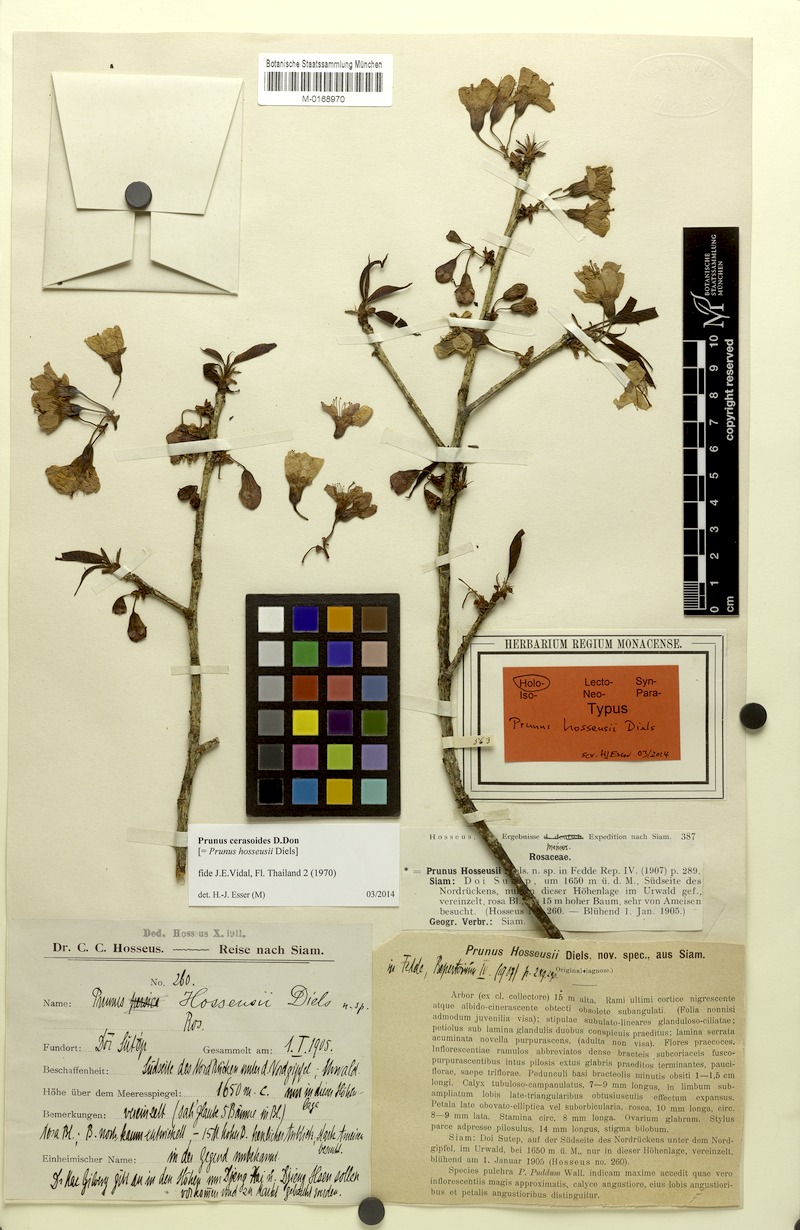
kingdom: Plantae
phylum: Tracheophyta
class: Magnoliopsida
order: Rosales
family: Rosaceae
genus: Prunus
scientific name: Prunus cerasoides
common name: Wild himalayan cherry
